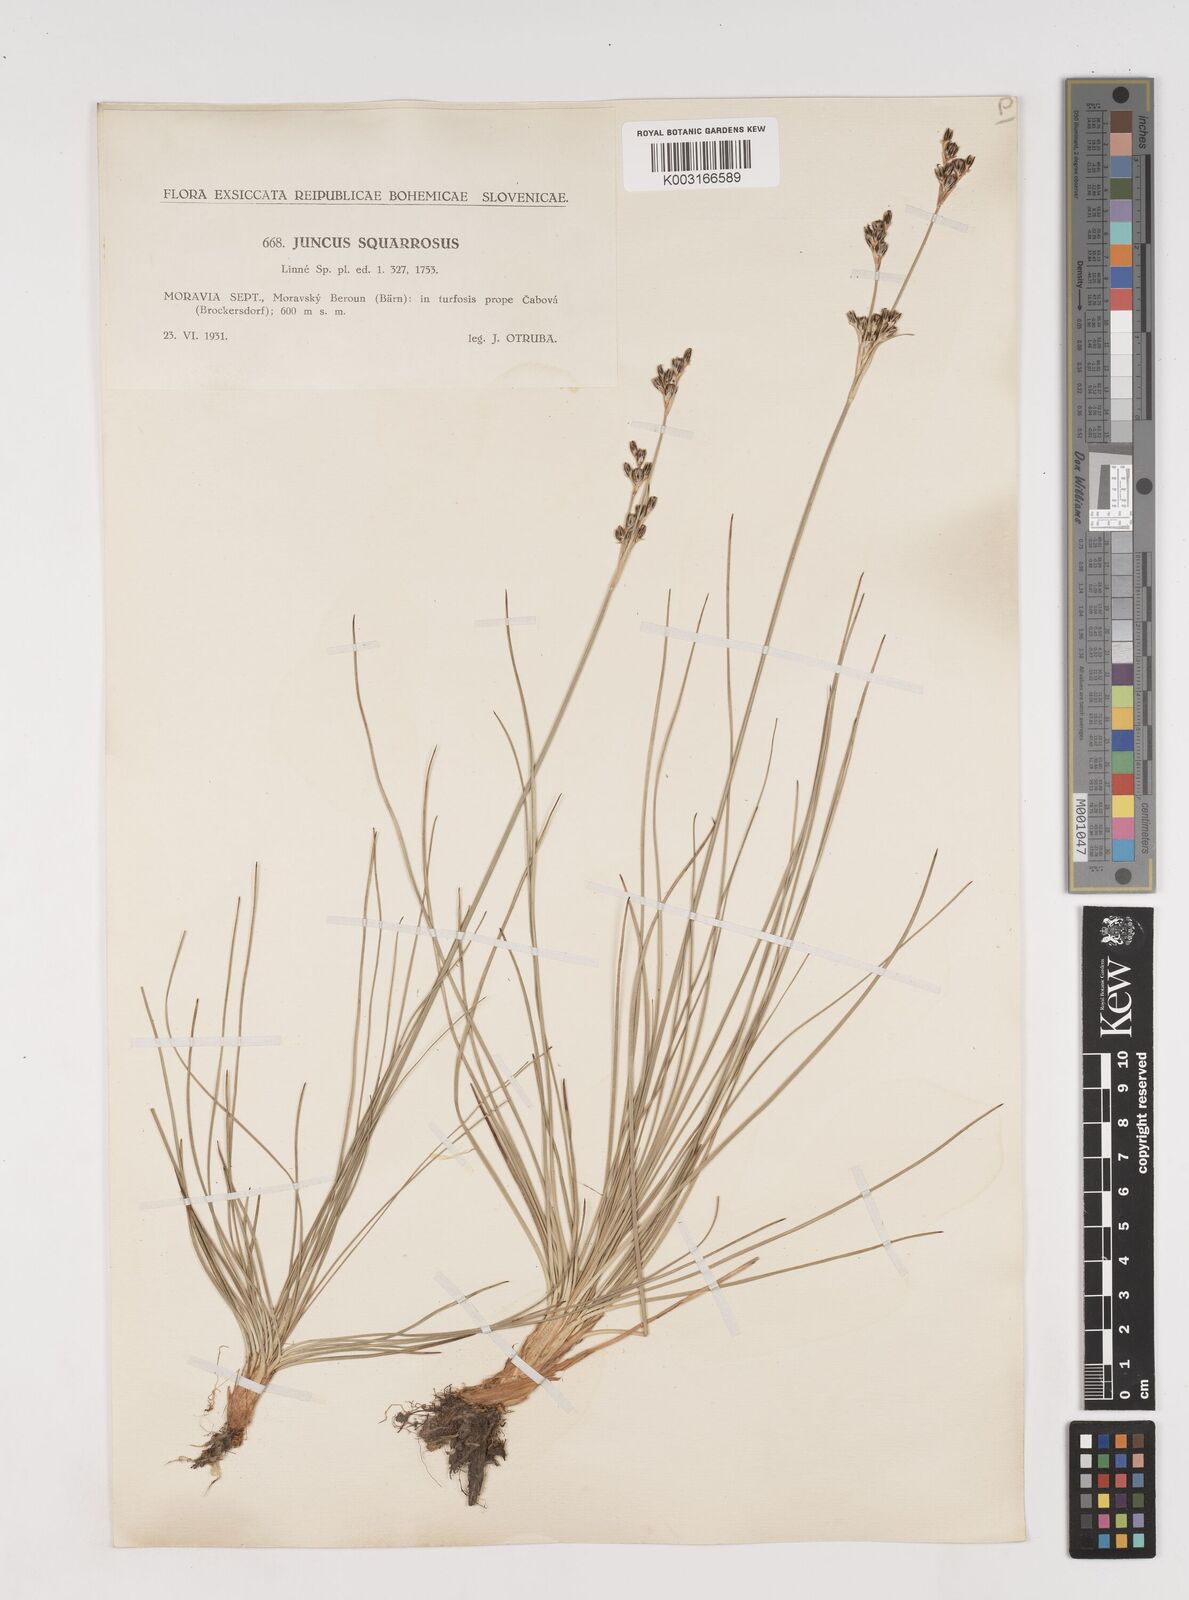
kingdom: Plantae
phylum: Tracheophyta
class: Liliopsida
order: Poales
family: Juncaceae
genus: Juncus
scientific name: Juncus squarrosus
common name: Heath rush
